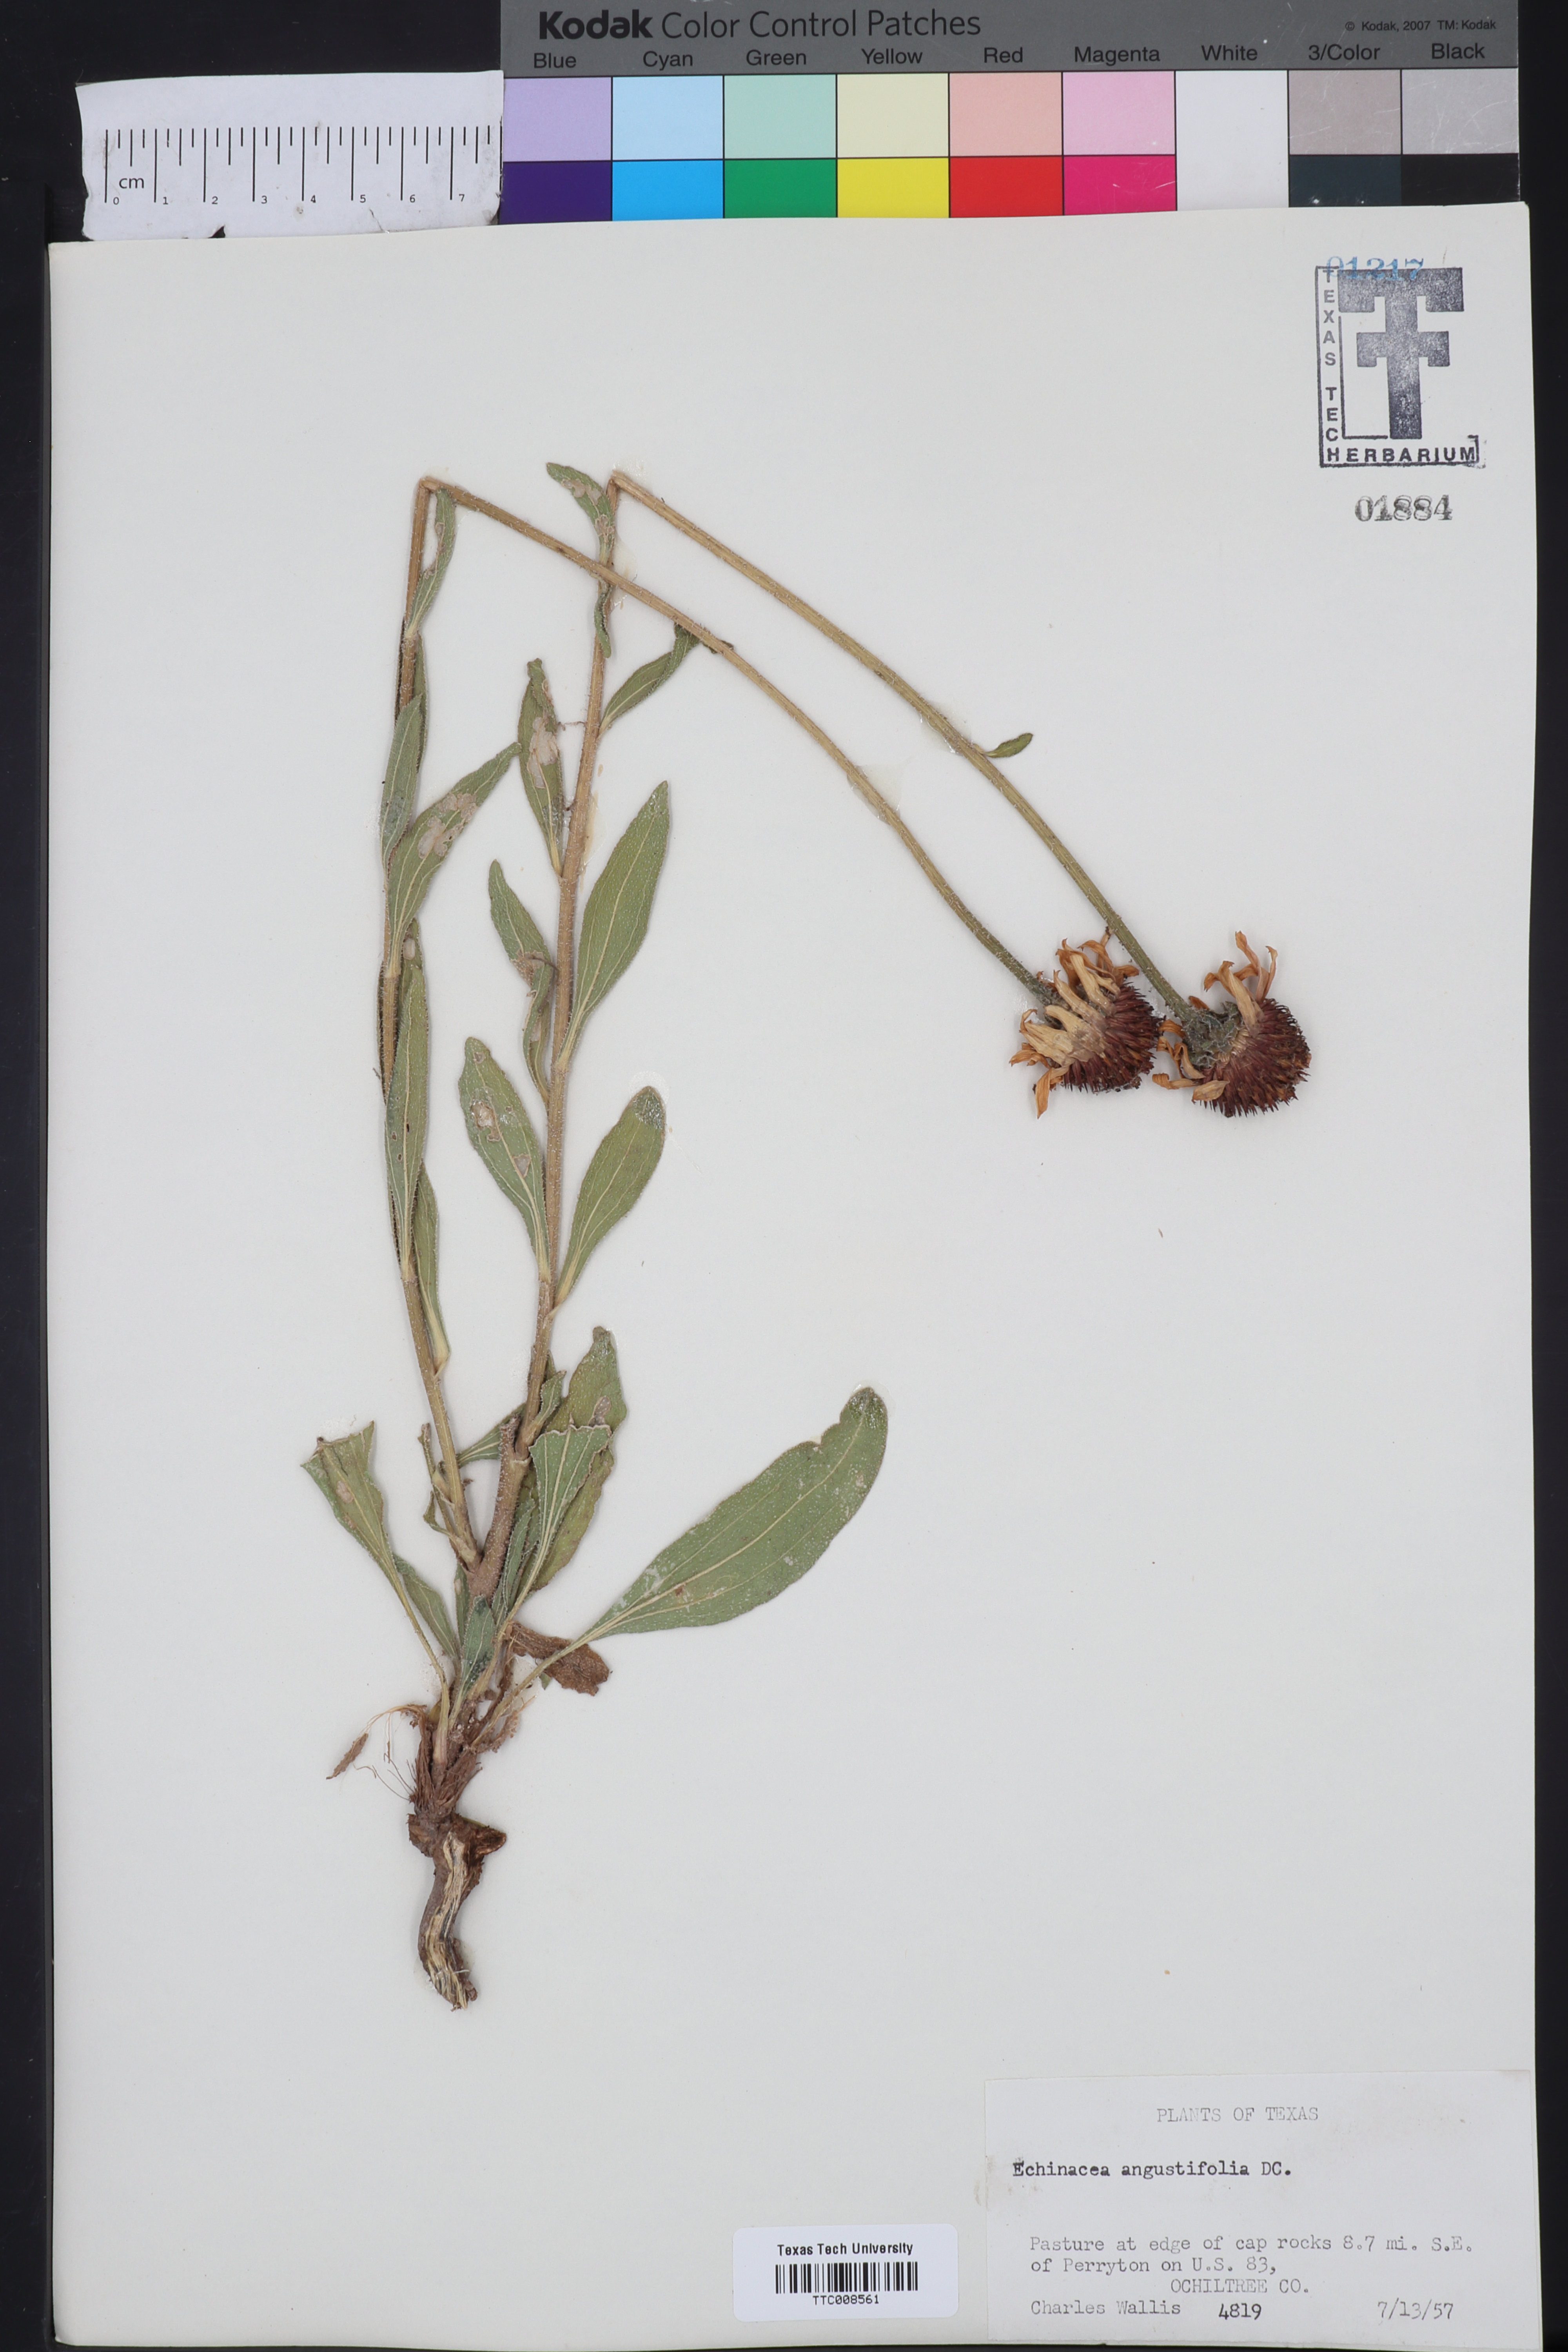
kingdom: Plantae
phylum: Tracheophyta
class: Magnoliopsida
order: Asterales
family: Asteraceae
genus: Echinacea
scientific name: Echinacea angustifolia
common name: Black-sampson echinacea
